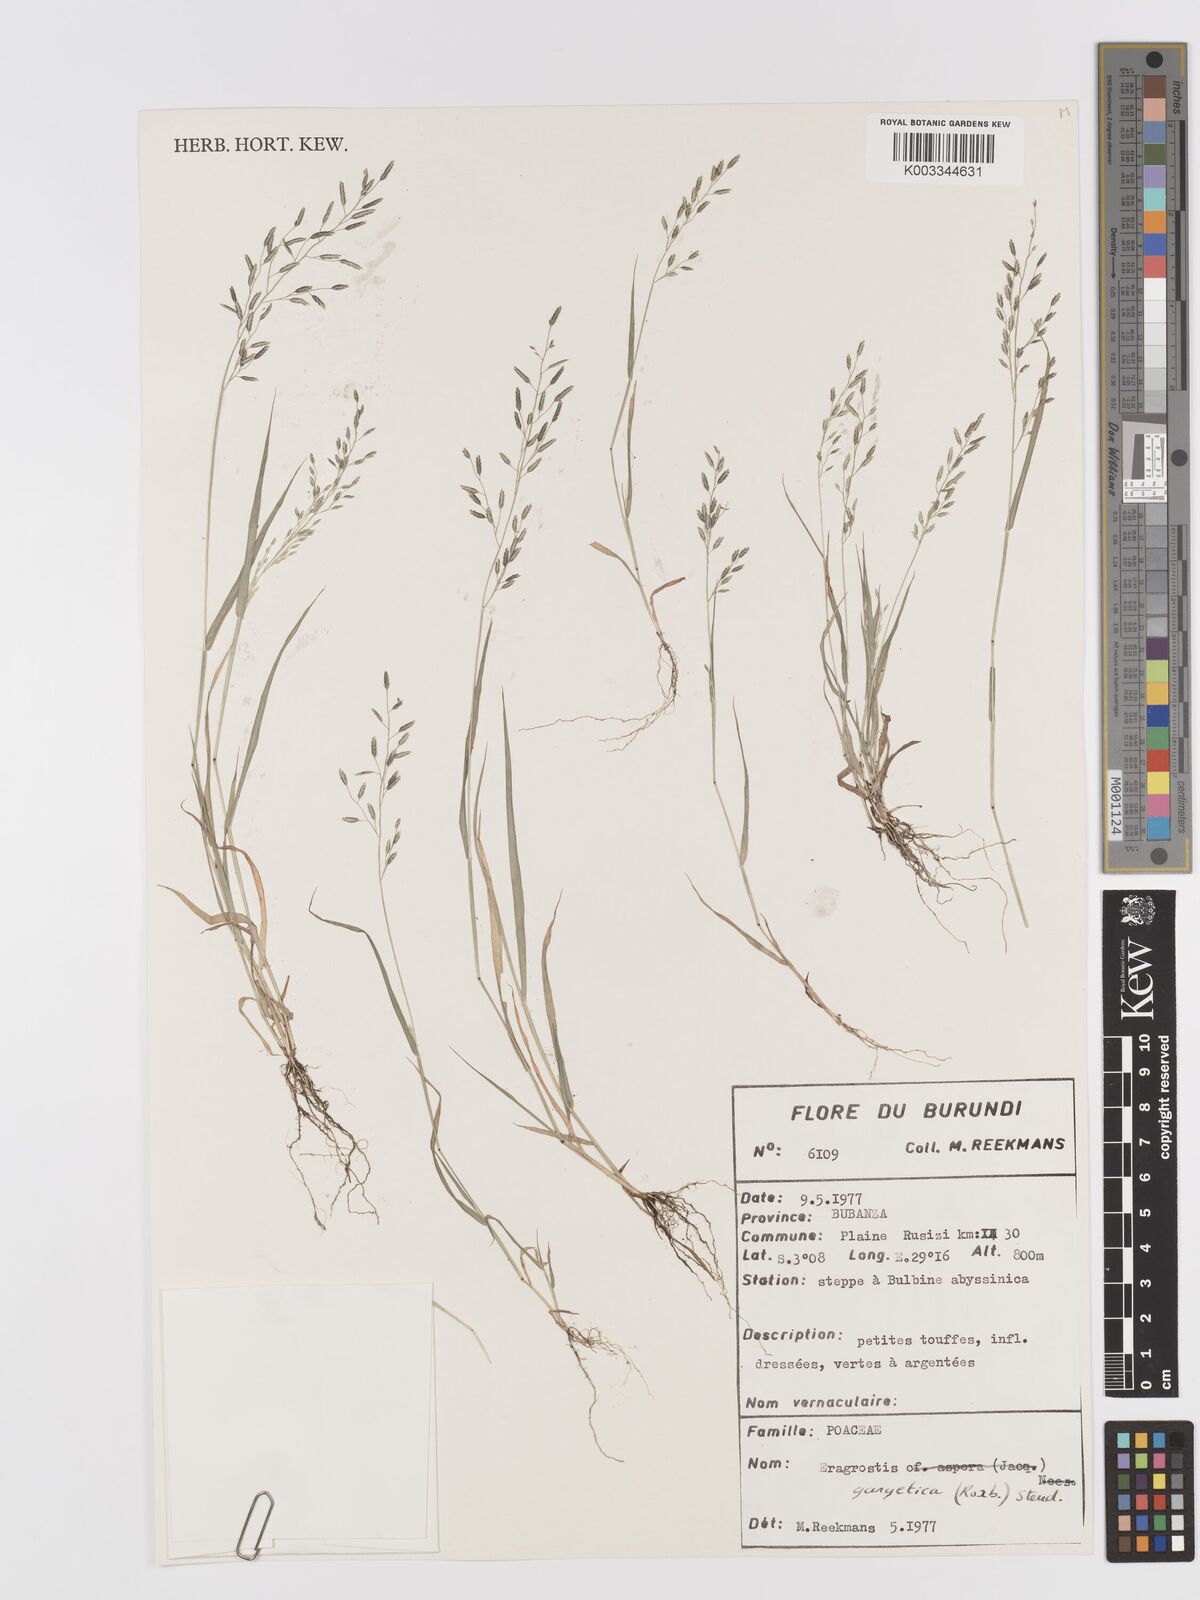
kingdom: Plantae
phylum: Tracheophyta
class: Liliopsida
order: Poales
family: Poaceae
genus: Eragrostis
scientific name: Eragrostis gangetica
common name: Slimflower lovegrass
